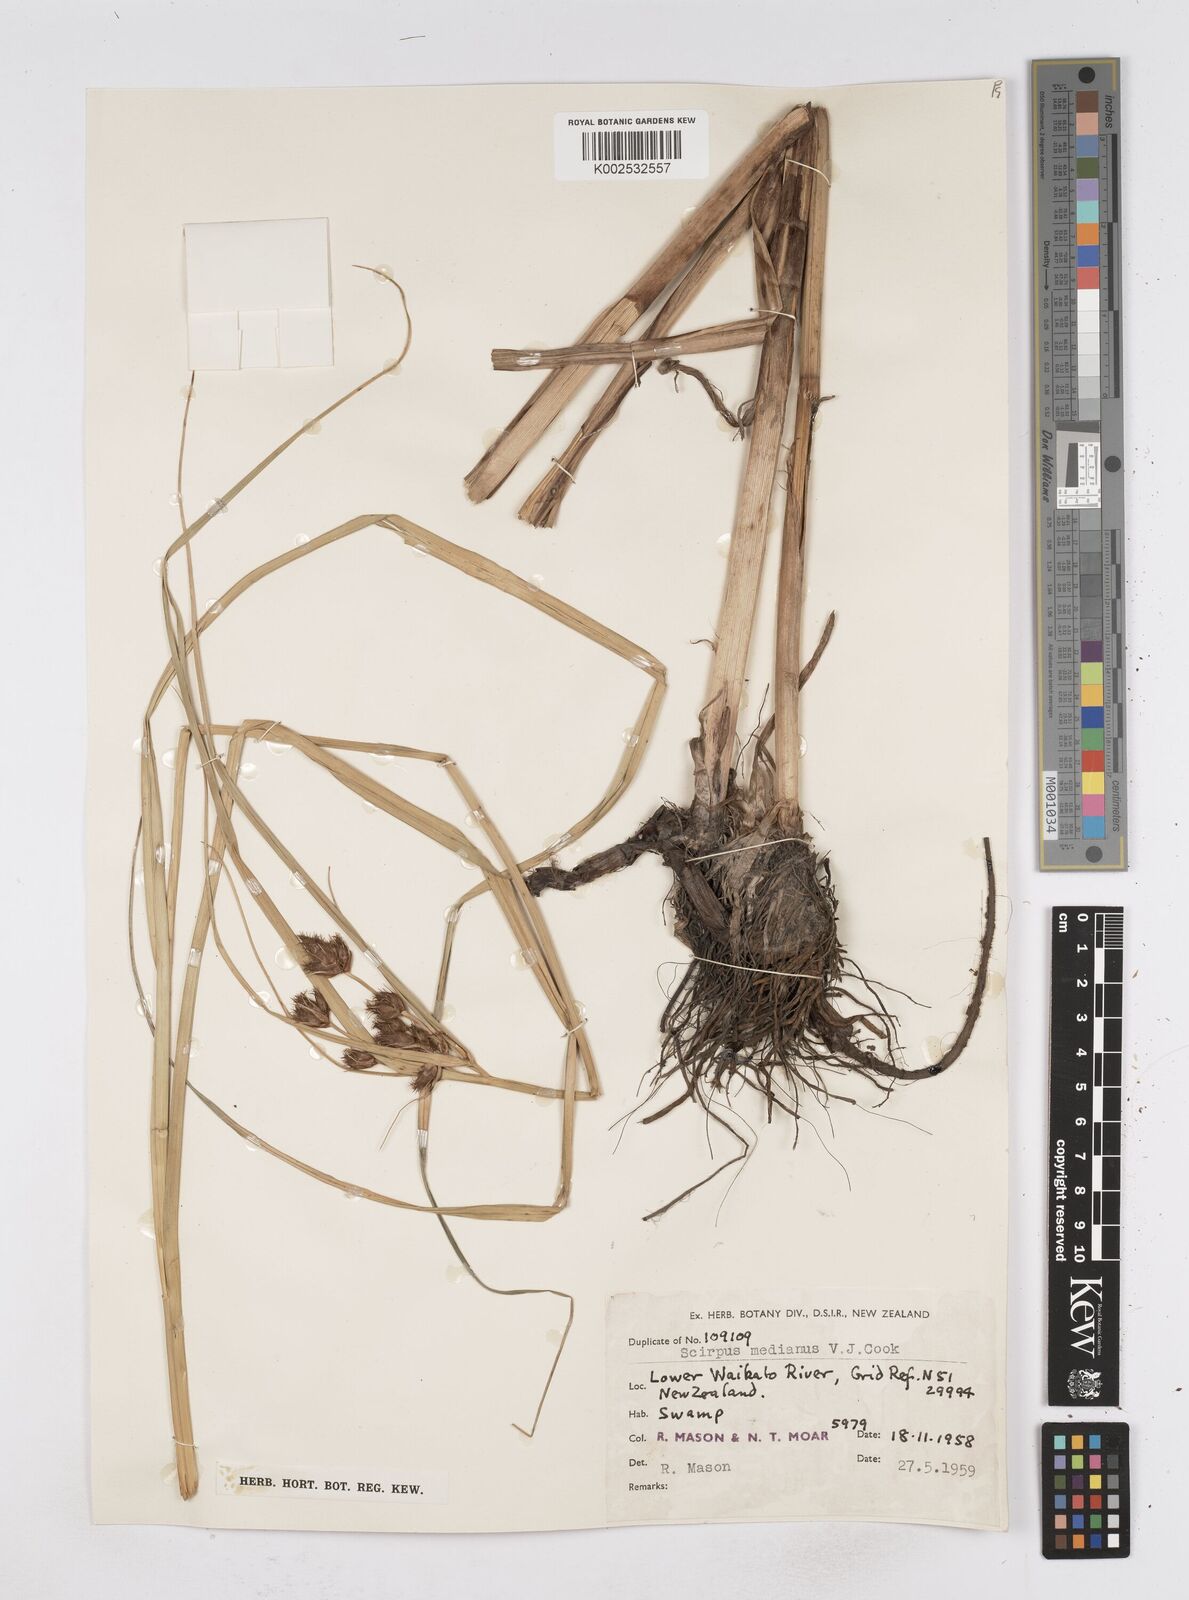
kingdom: Plantae
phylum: Tracheophyta
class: Liliopsida
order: Poales
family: Cyperaceae
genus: Bolboschoenus
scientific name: Bolboschoenus medianus
